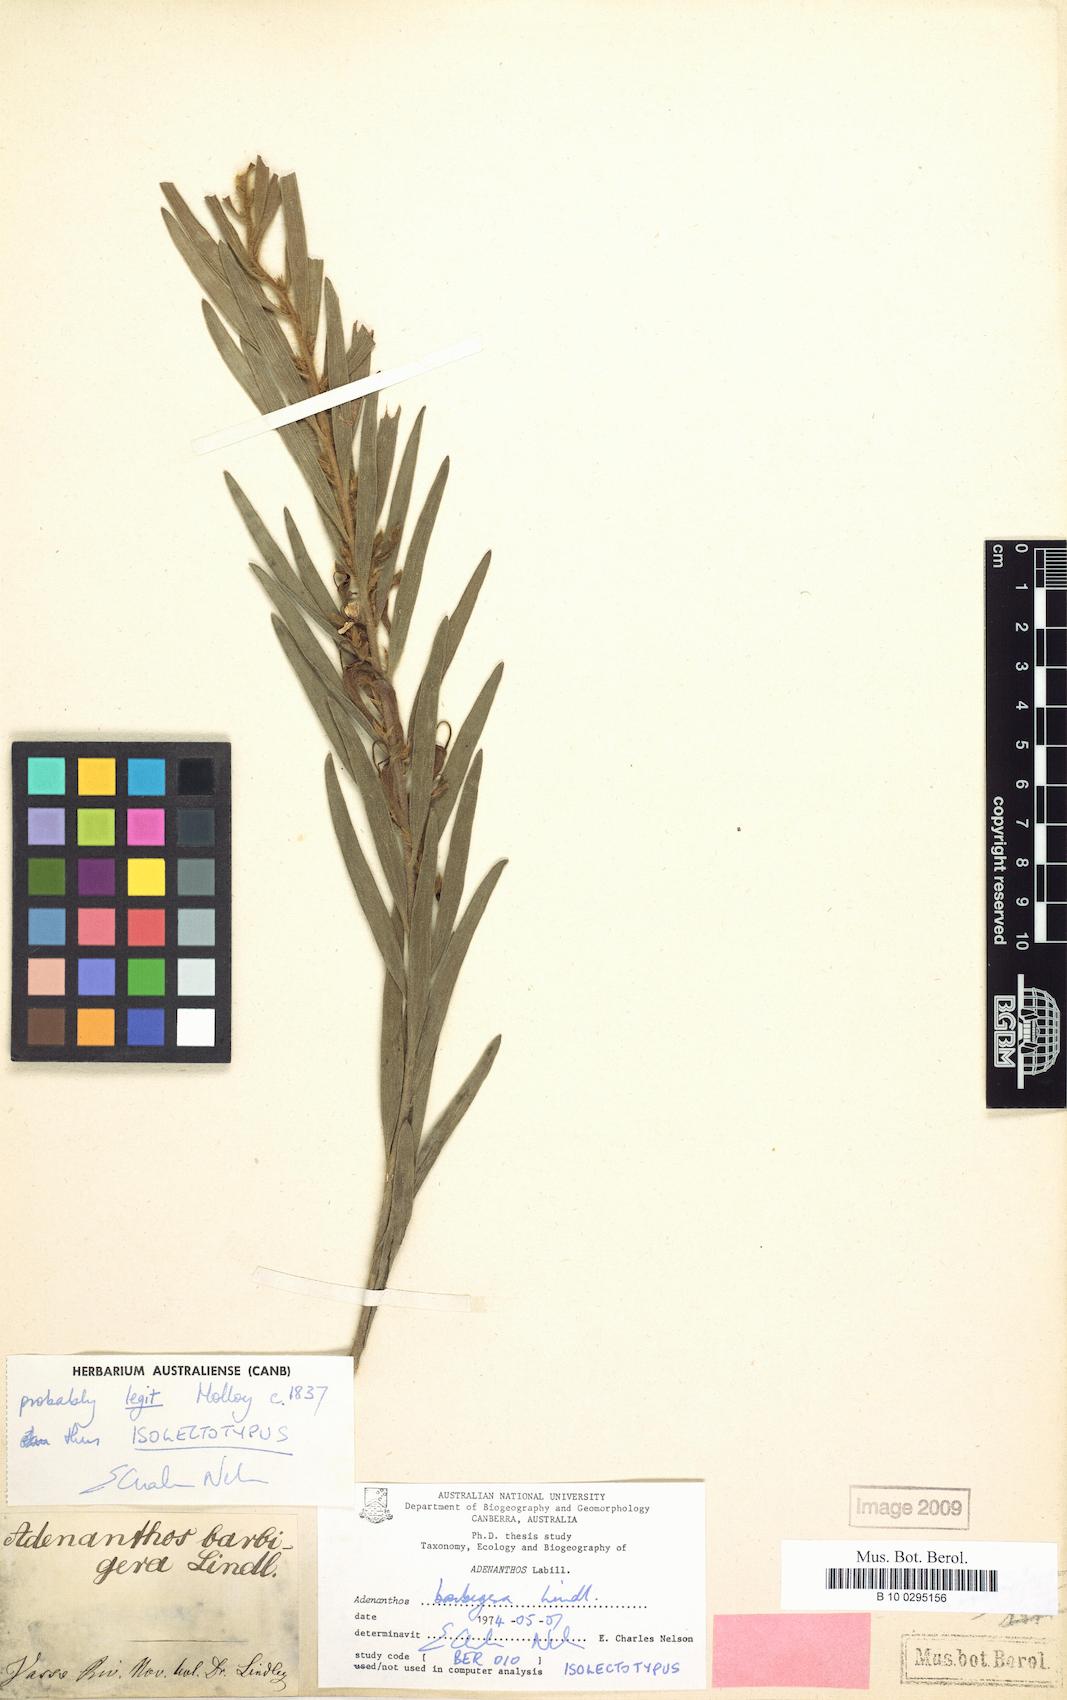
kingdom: Plantae
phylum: Tracheophyta
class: Magnoliopsida
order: Proteales
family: Proteaceae
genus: Adenanthos
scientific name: Adenanthos barbiger
